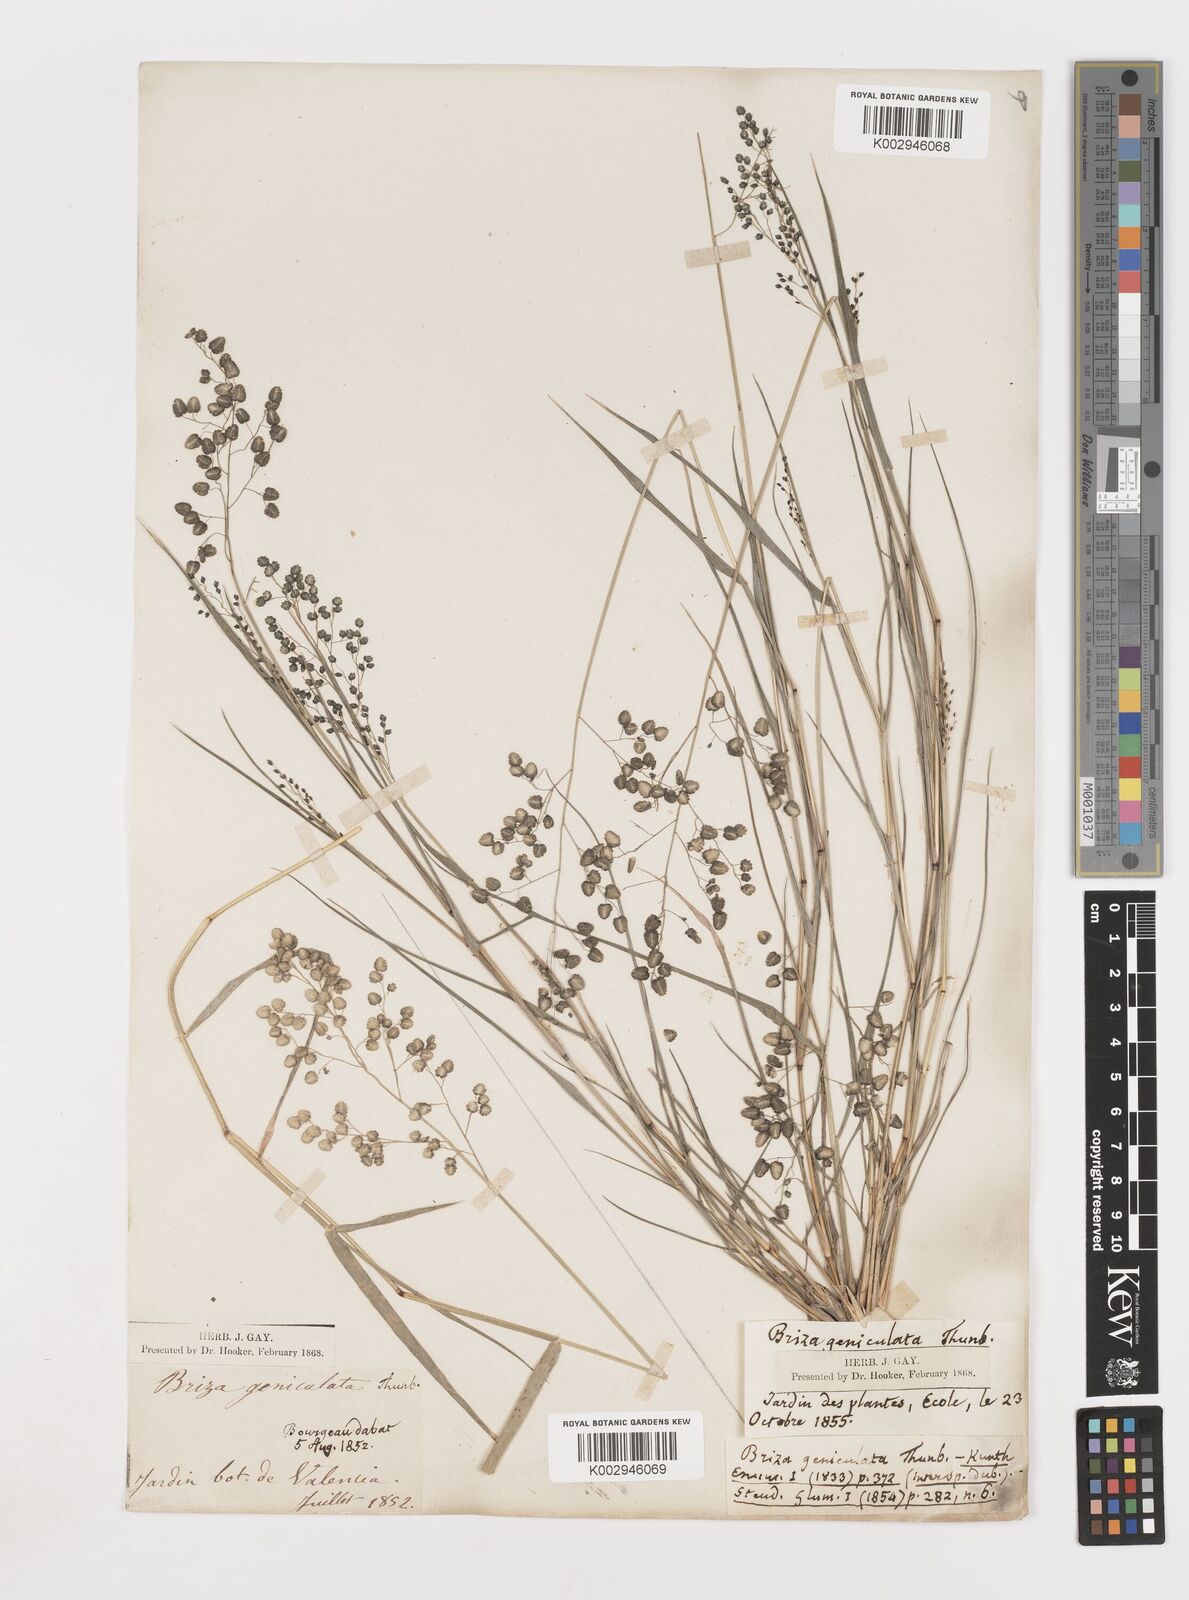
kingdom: Plantae
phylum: Tracheophyta
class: Liliopsida
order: Poales
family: Poaceae
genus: Eragrostis
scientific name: Eragrostis obtusa
